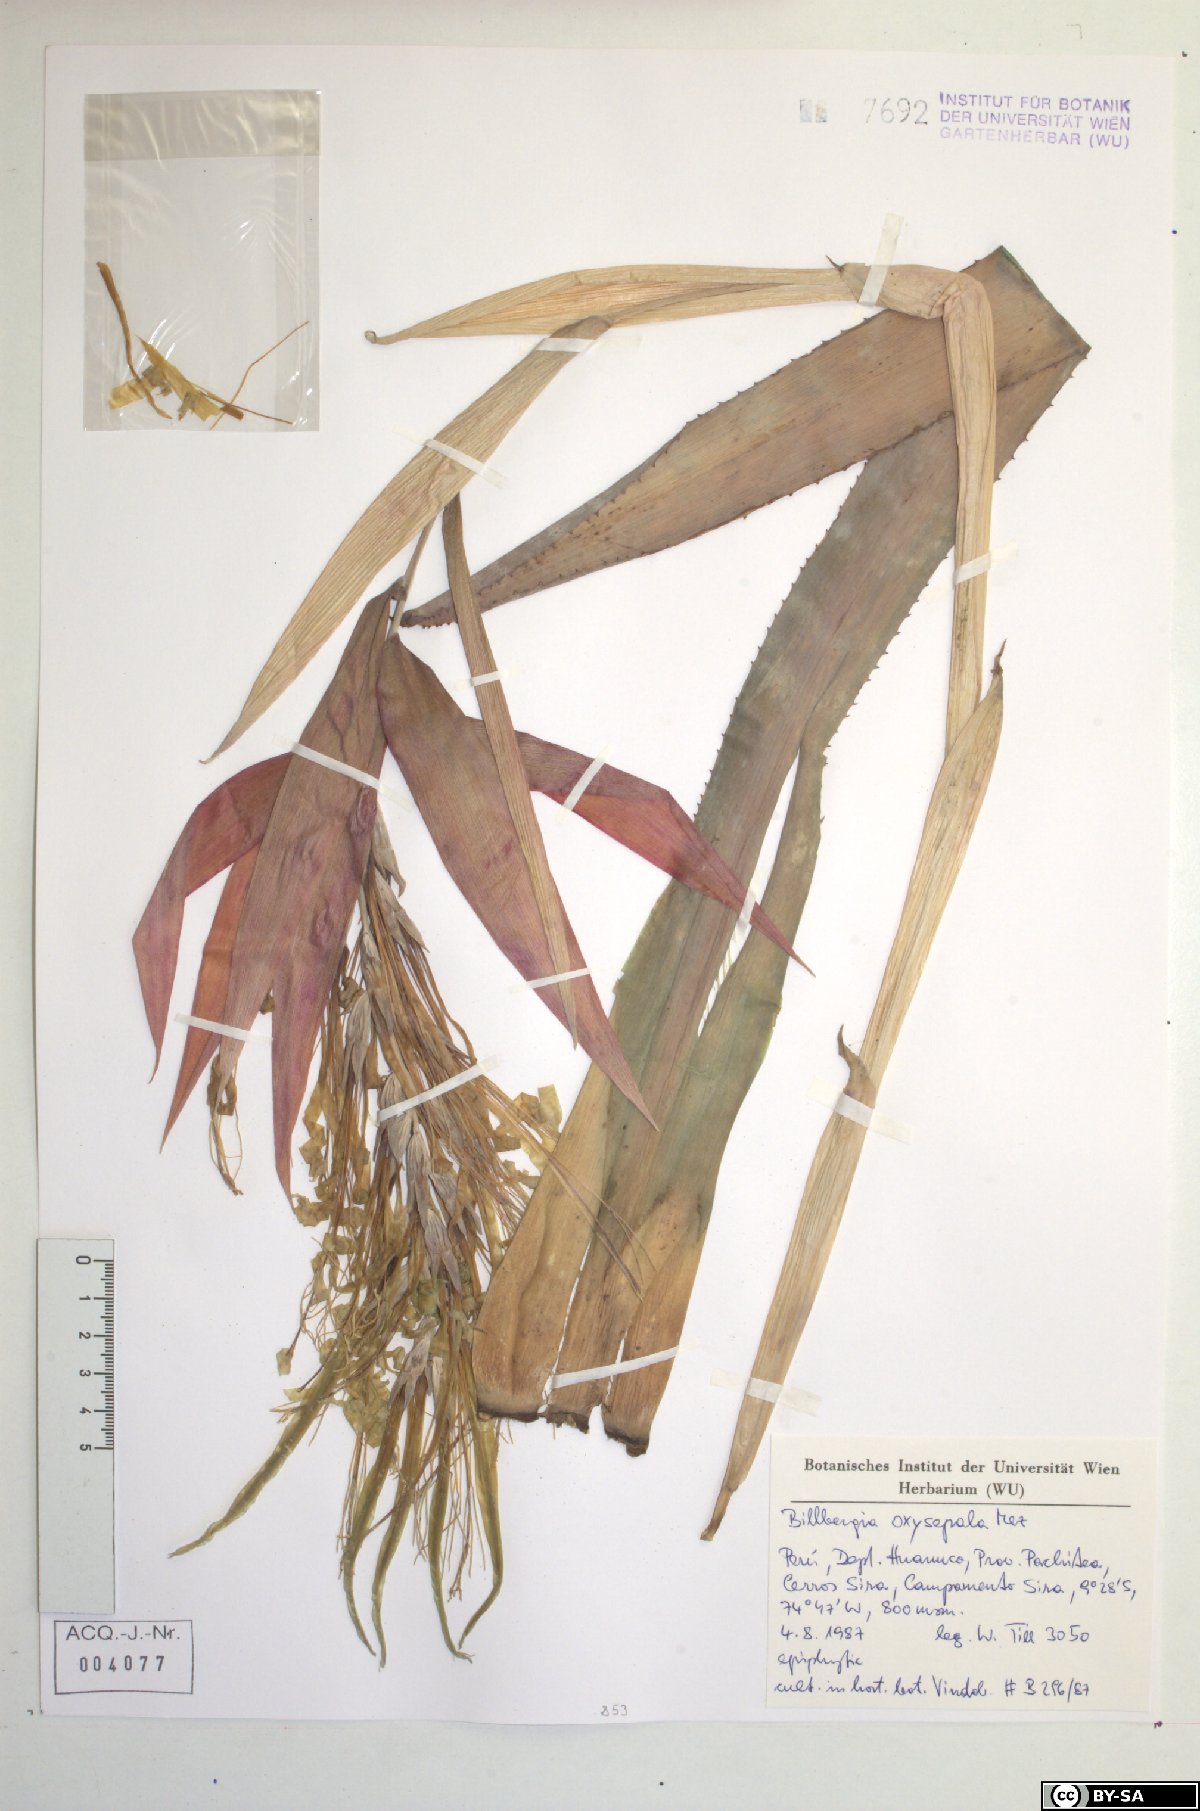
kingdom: Plantae
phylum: Tracheophyta
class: Liliopsida
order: Poales
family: Bromeliaceae
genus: Billbergia
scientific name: Billbergia oxysepala
